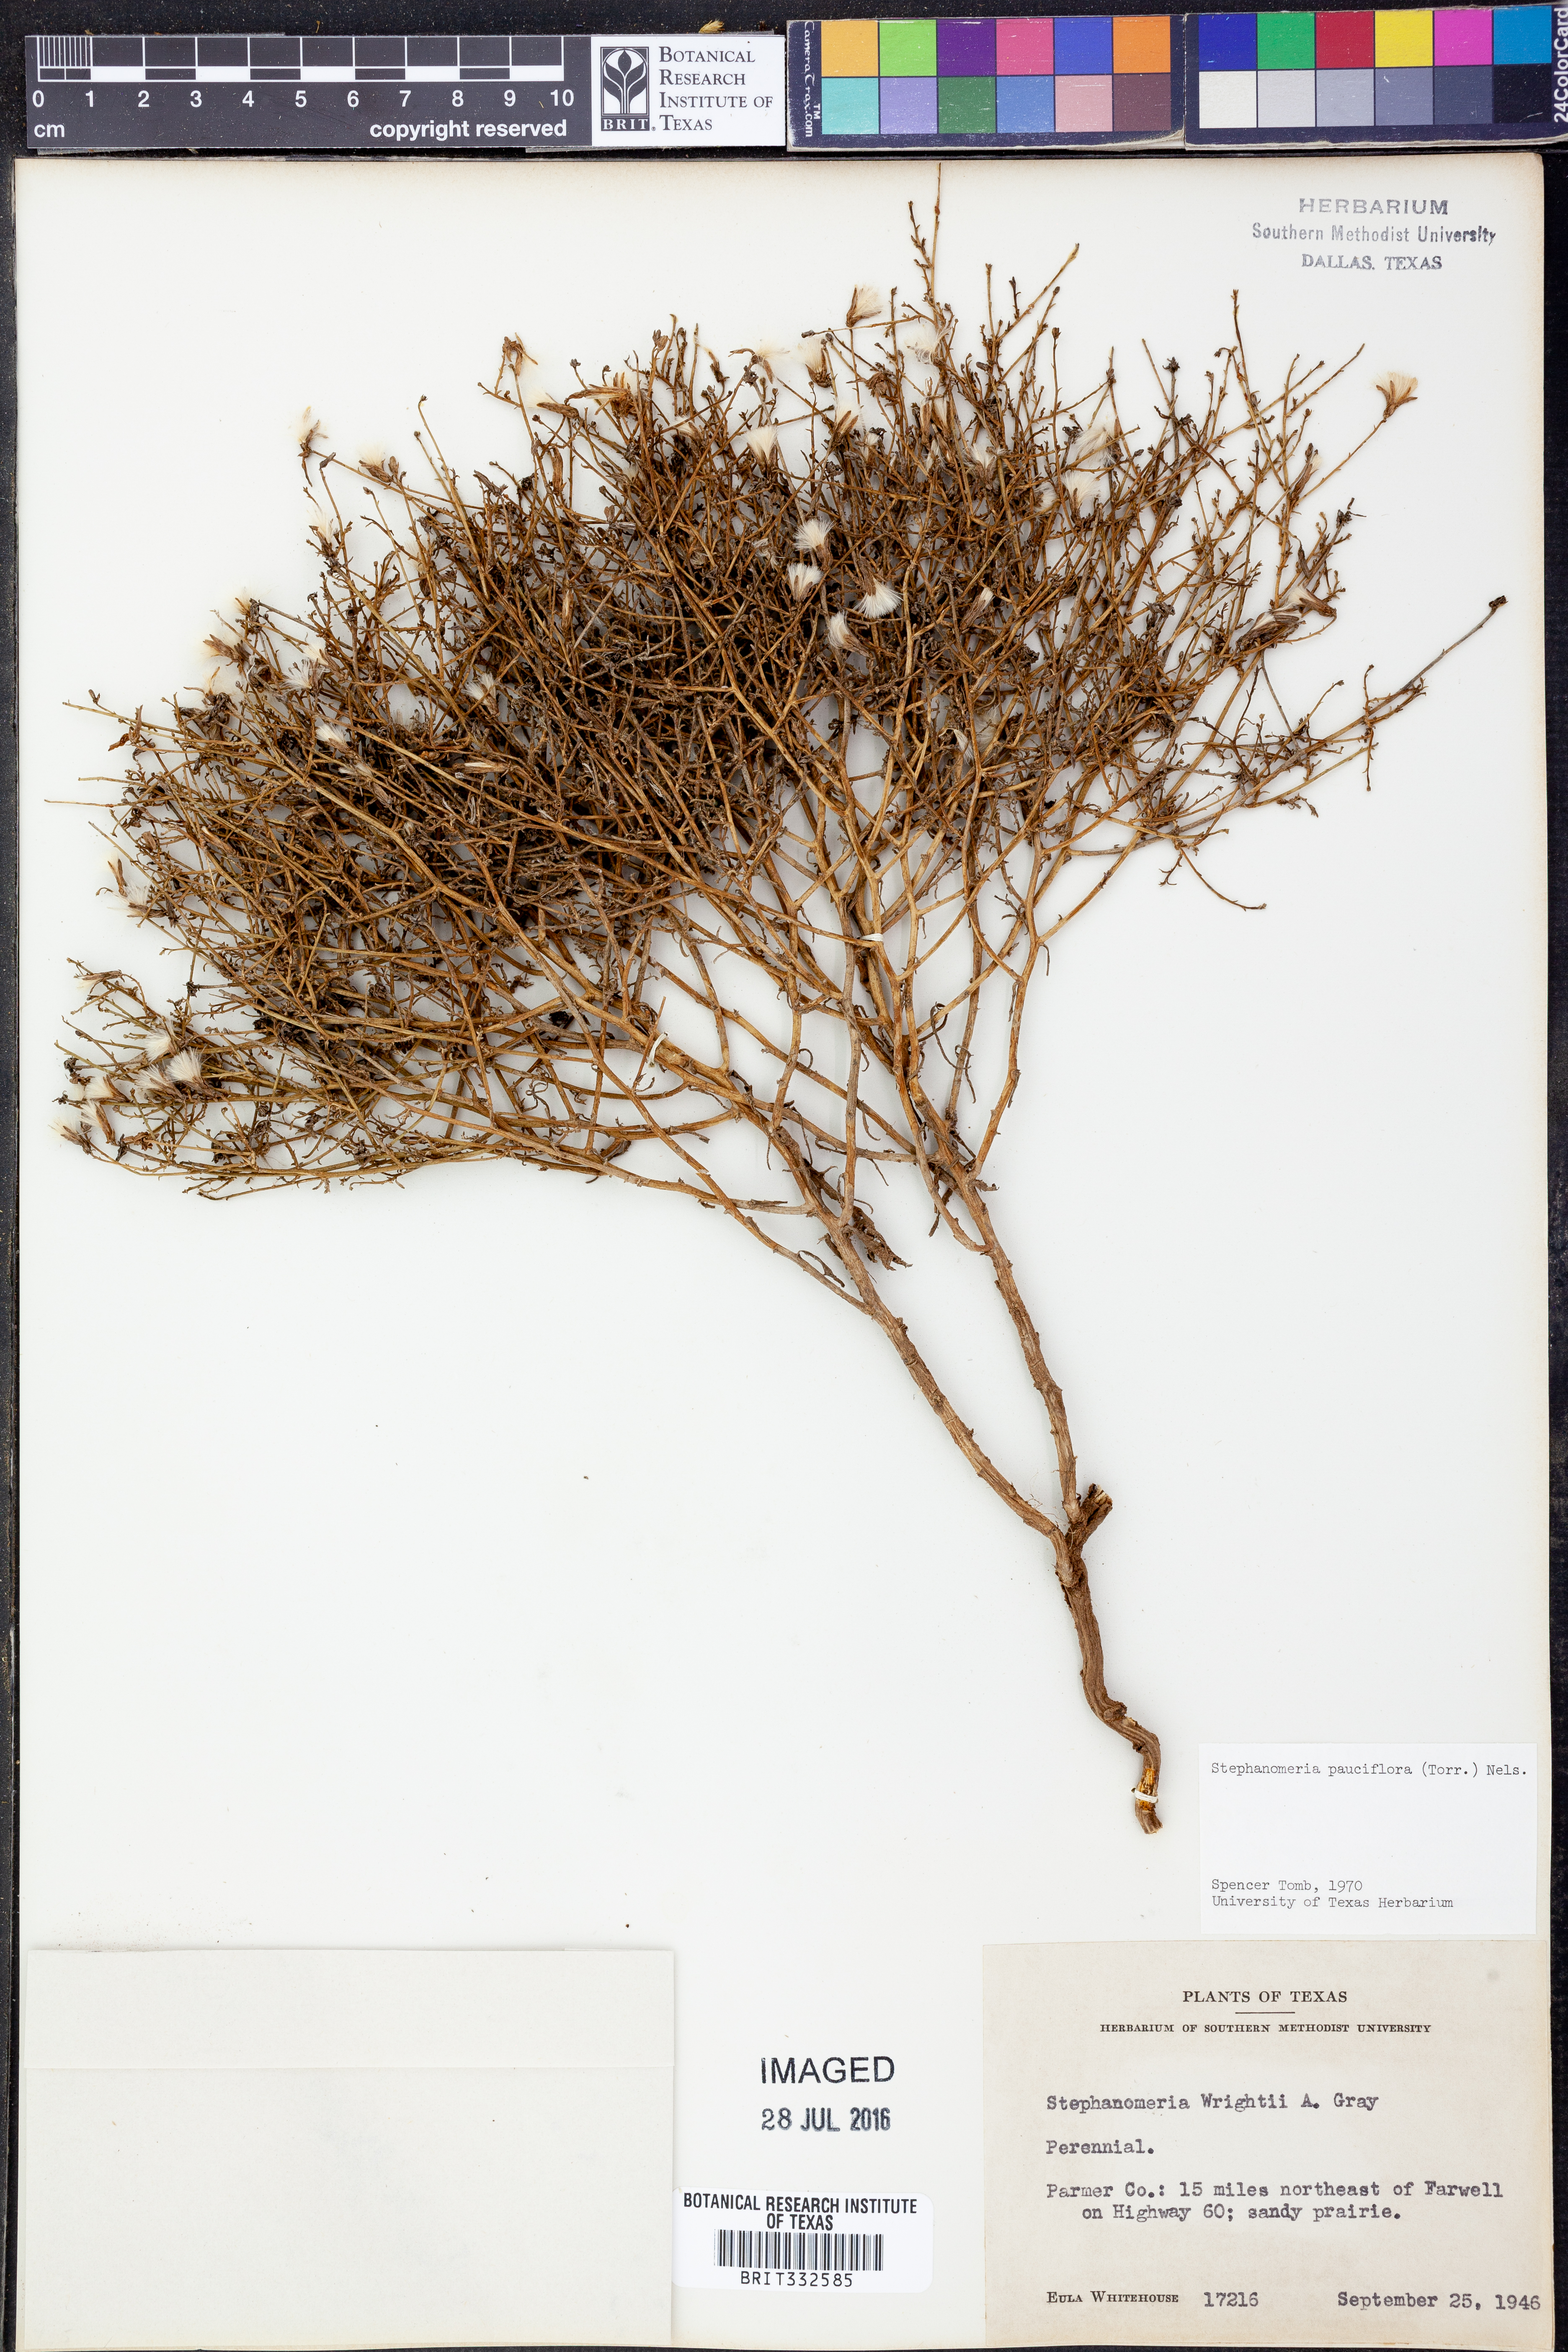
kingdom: Plantae
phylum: Tracheophyta
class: Magnoliopsida
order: Asterales
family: Asteraceae
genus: Stephanomeria
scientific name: Stephanomeria pauciflora
